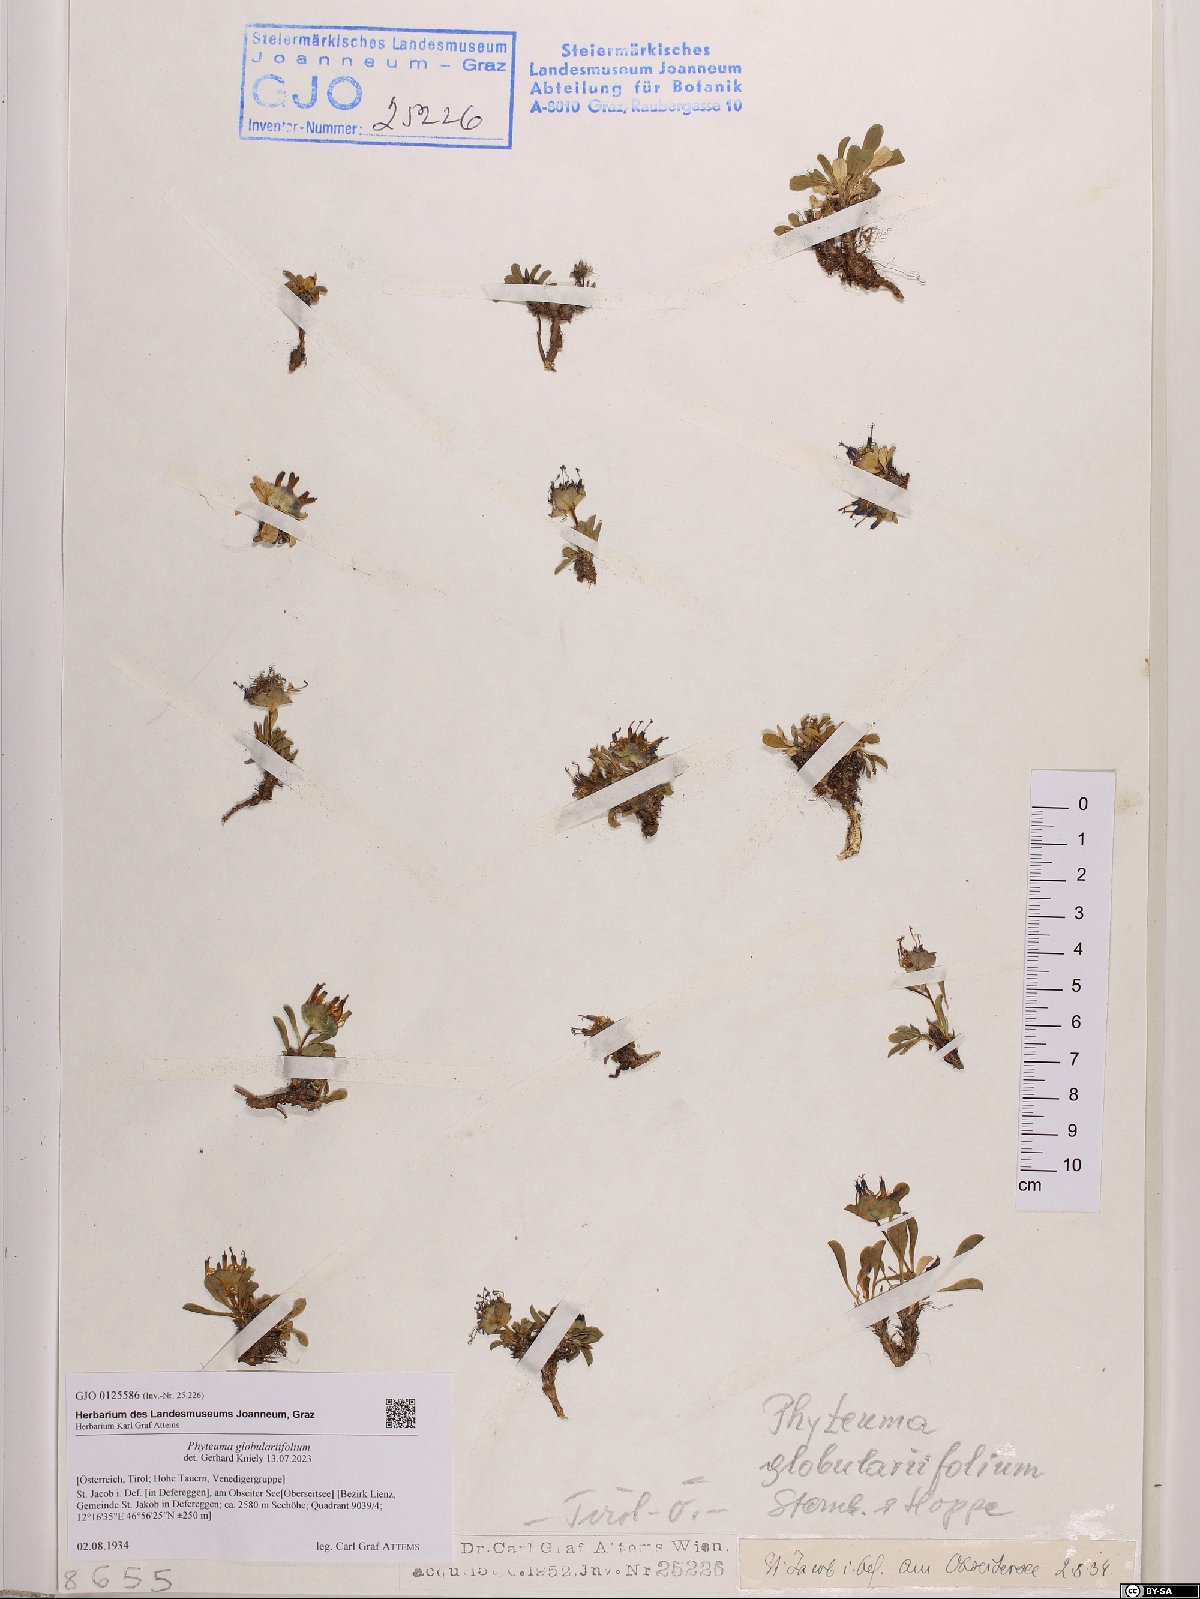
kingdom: Plantae
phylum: Tracheophyta
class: Magnoliopsida
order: Asterales
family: Campanulaceae
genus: Phyteuma
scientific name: Phyteuma globulariifolium
